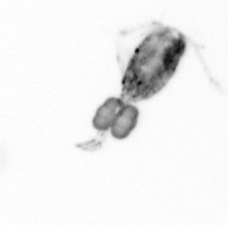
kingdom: Animalia
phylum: Arthropoda
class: Copepoda
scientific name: Copepoda
